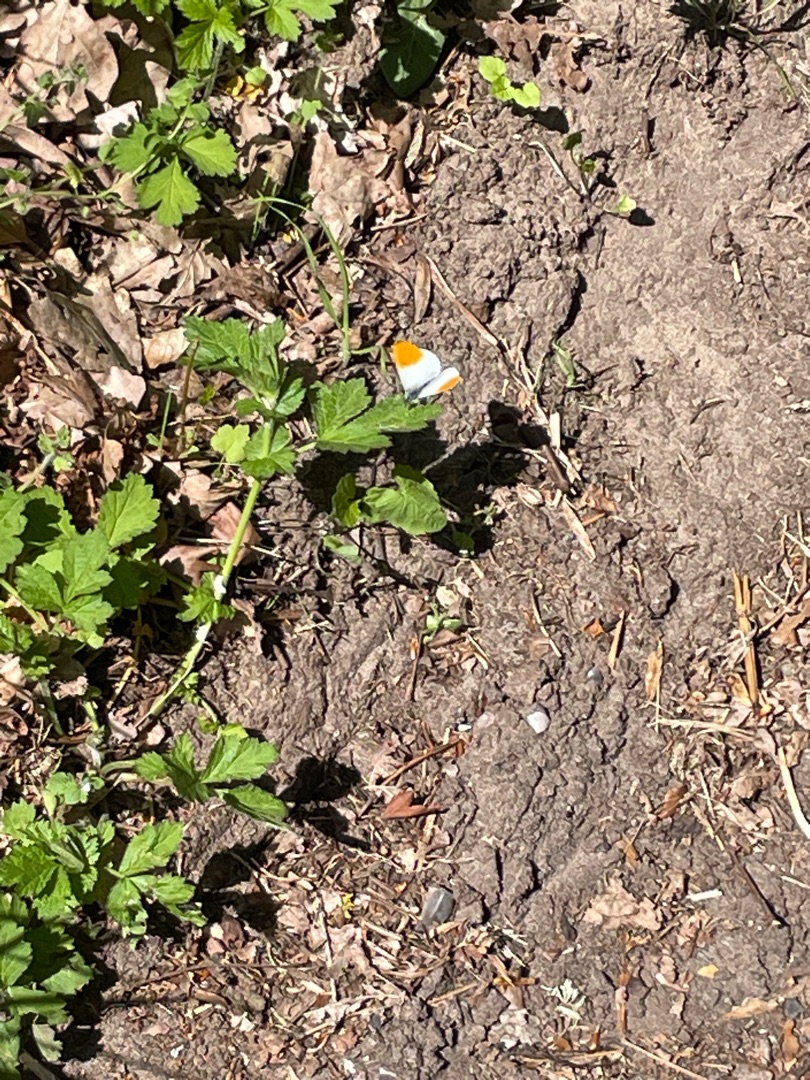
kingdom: Animalia
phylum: Arthropoda
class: Insecta
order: Lepidoptera
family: Pieridae
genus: Anthocharis
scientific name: Anthocharis cardamines
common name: Aurora
